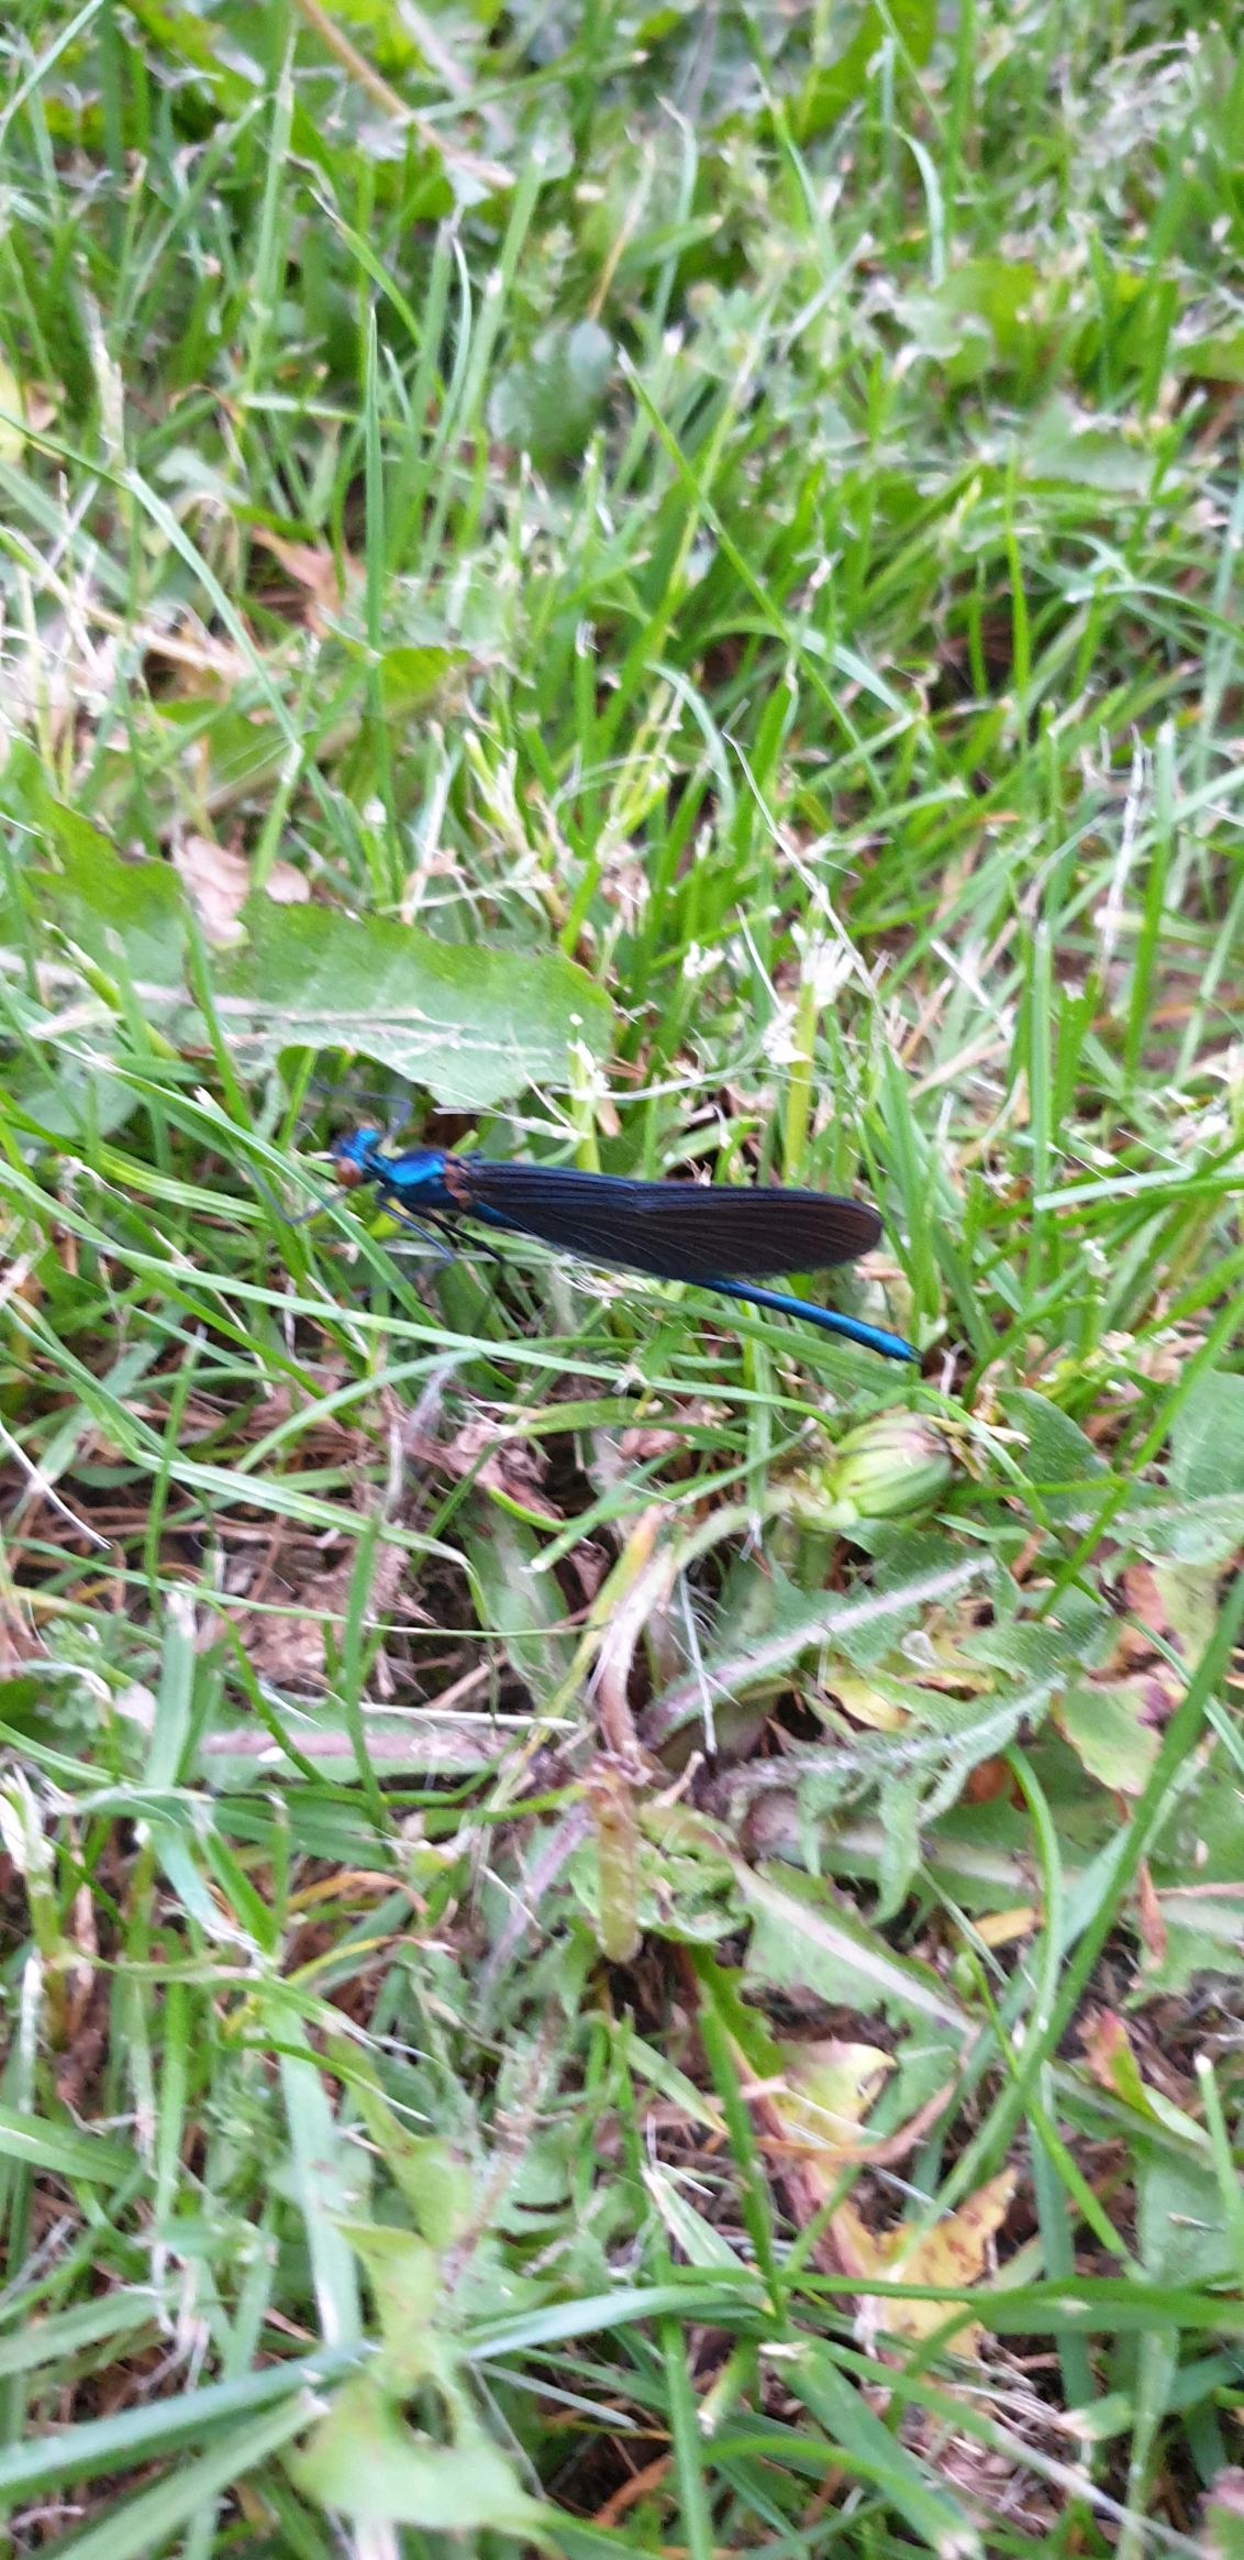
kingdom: Animalia
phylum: Arthropoda
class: Insecta
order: Odonata
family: Calopterygidae
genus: Calopteryx
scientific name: Calopteryx virgo
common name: Blåvinget pragtvandnymfe
